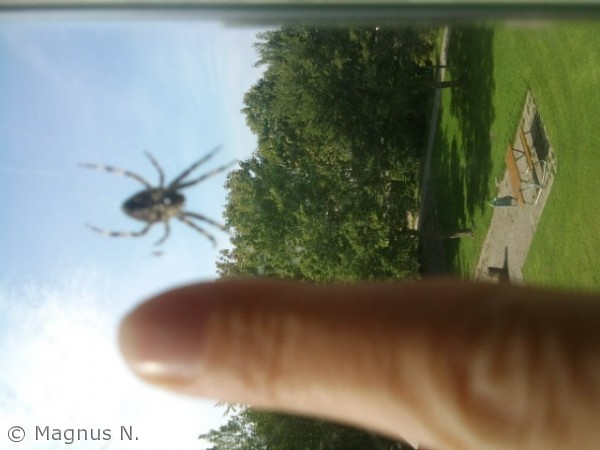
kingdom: Animalia
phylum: Arthropoda
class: Arachnida
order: Araneae
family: Araneidae
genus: Araneus
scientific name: Araneus diadematus
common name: Korsedderkop
